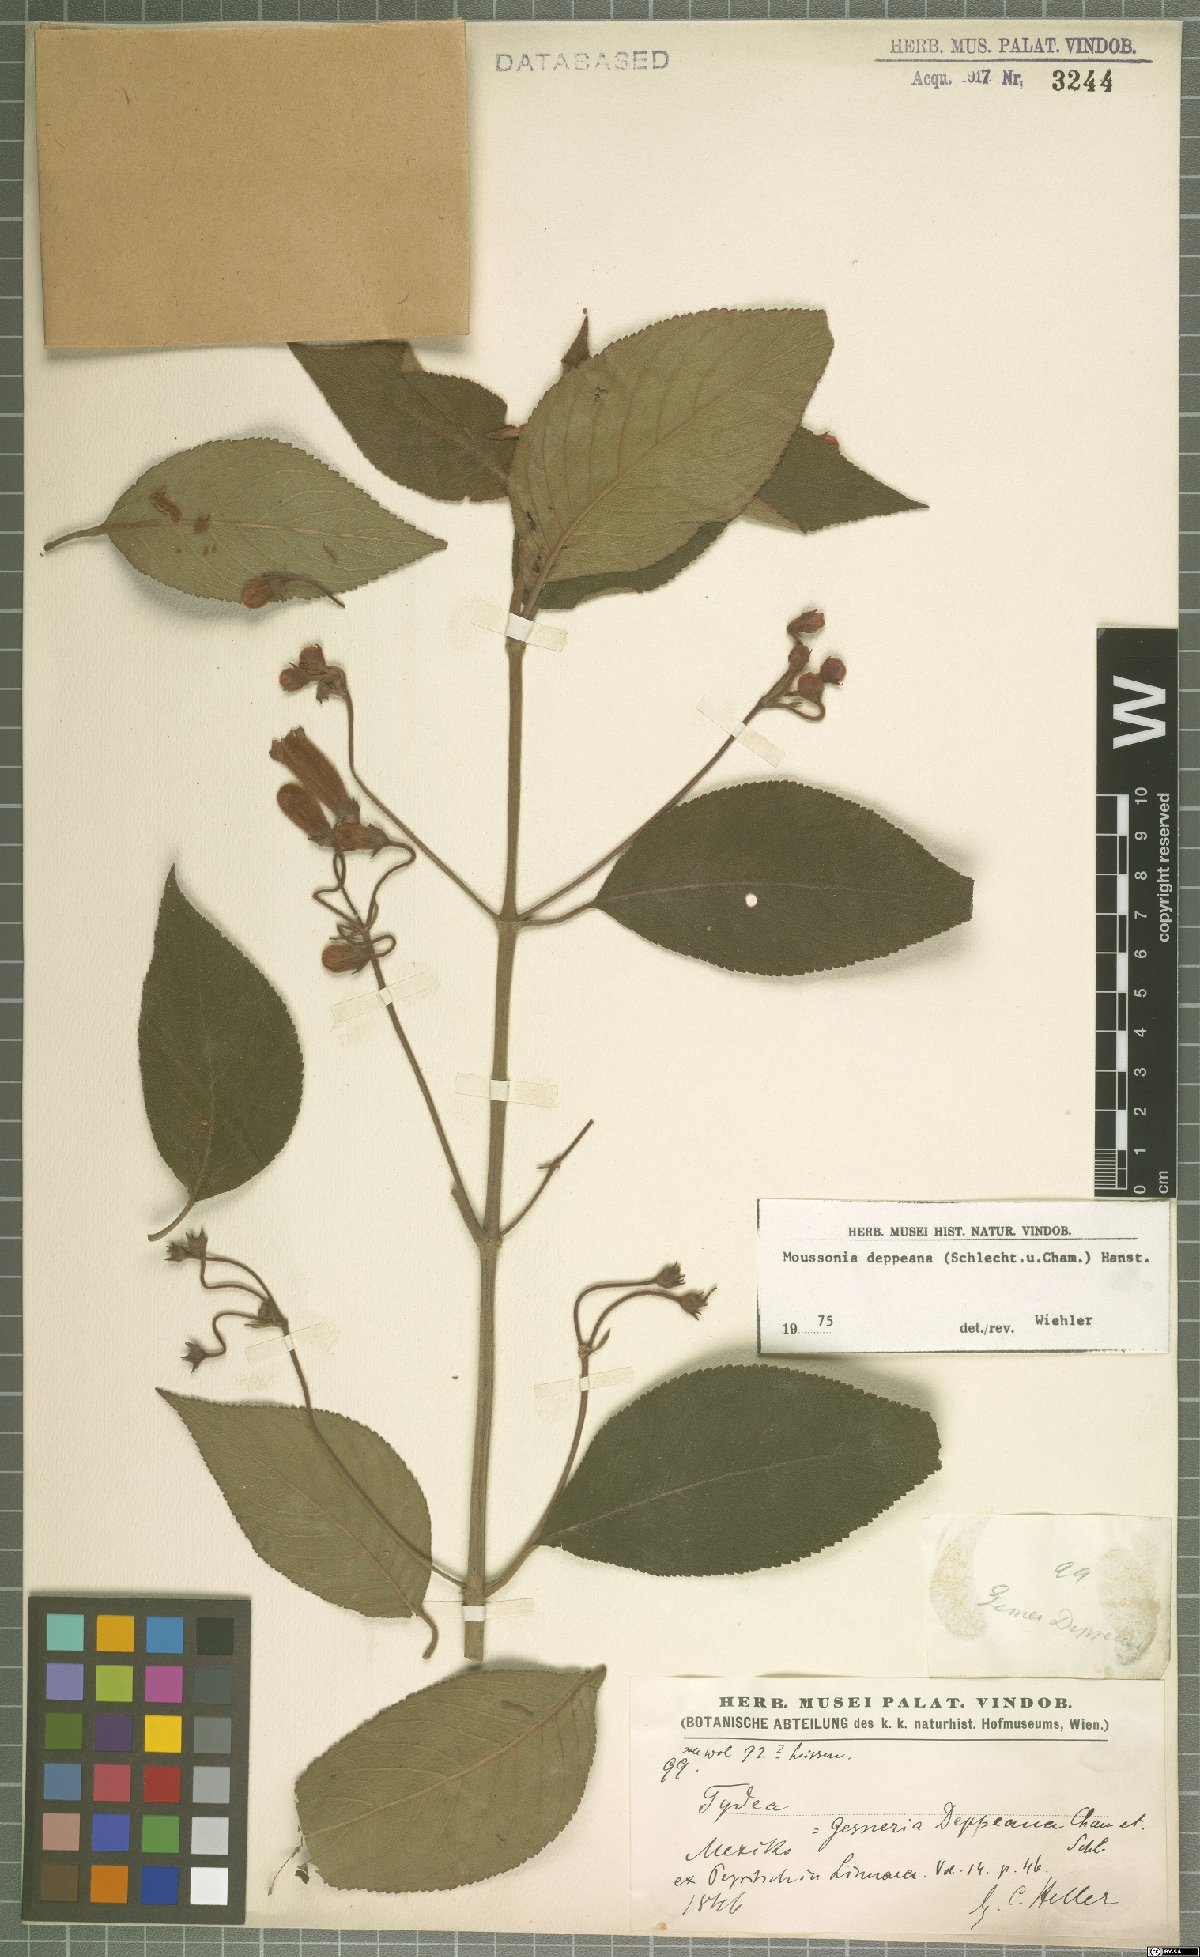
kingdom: Plantae
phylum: Tracheophyta
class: Magnoliopsida
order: Lamiales
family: Gesneriaceae
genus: Moussonia
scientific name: Moussonia deppeana
